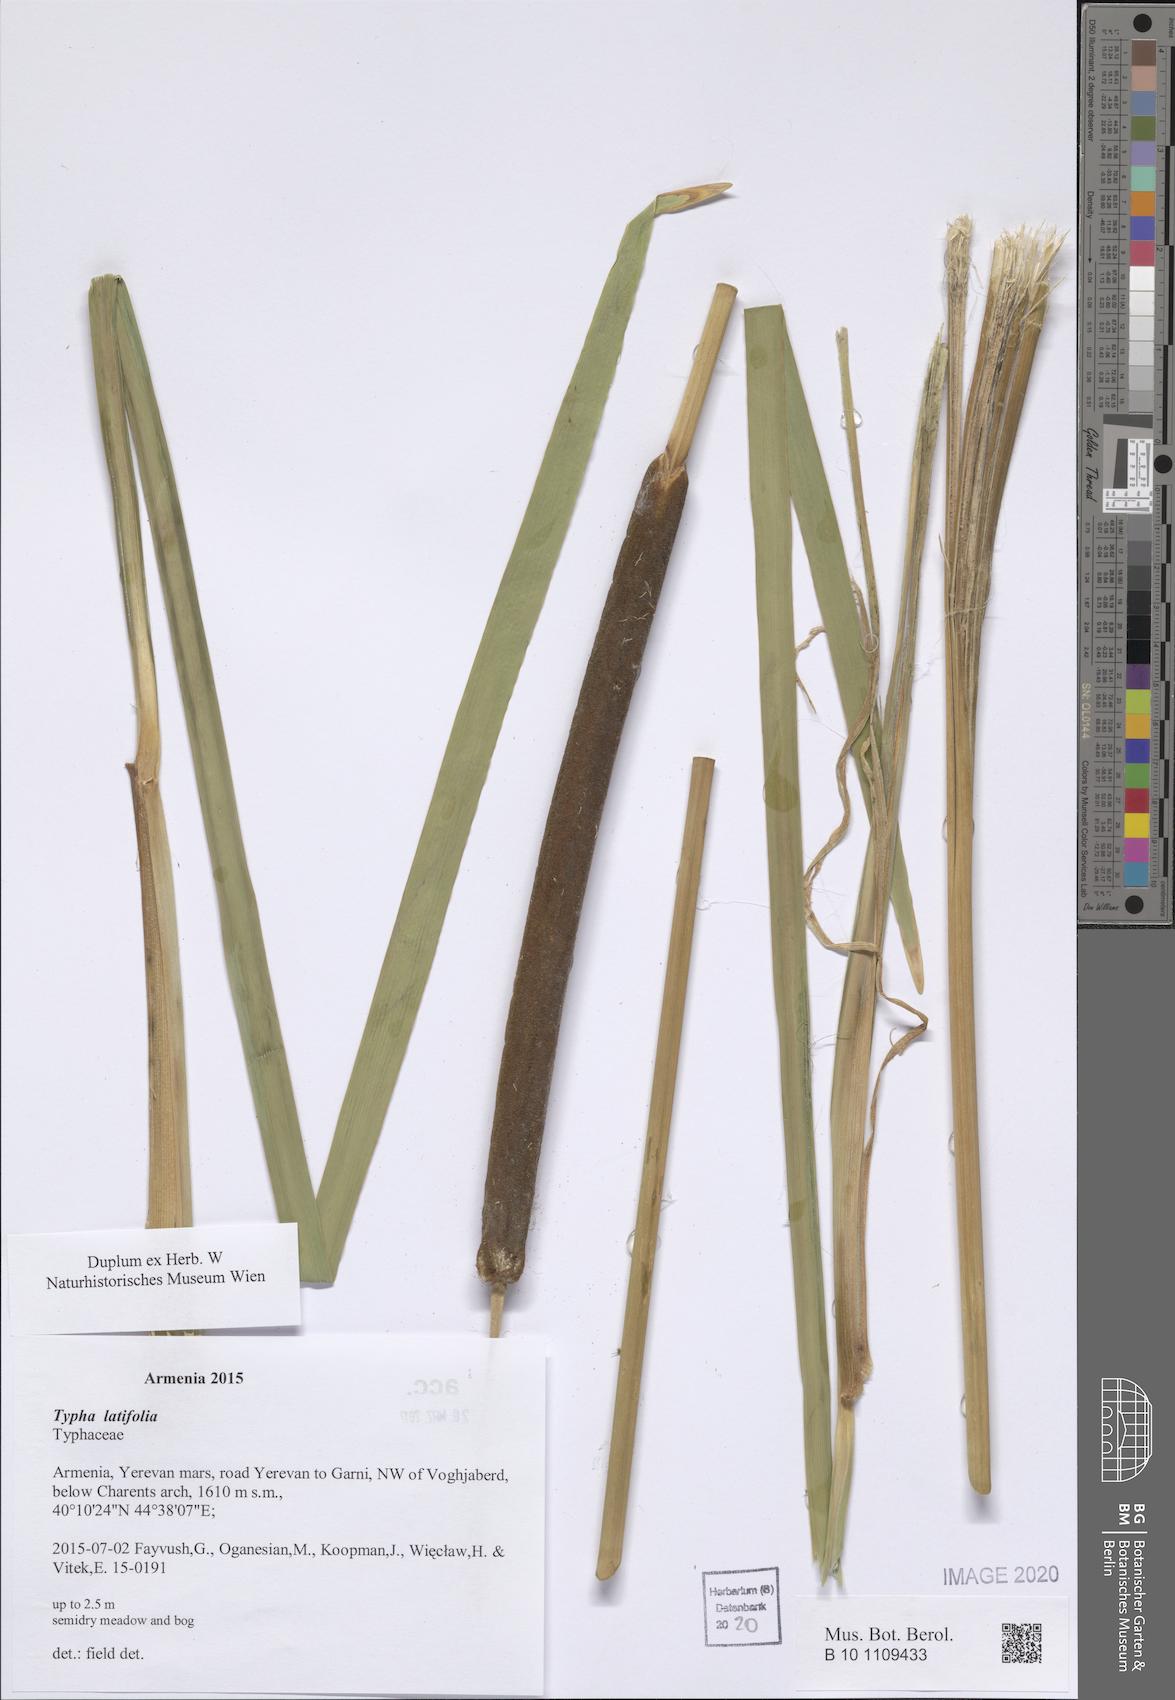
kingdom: Plantae
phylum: Tracheophyta
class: Liliopsida
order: Poales
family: Typhaceae
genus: Typha
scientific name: Typha latifolia
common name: Broadleaf cattail
